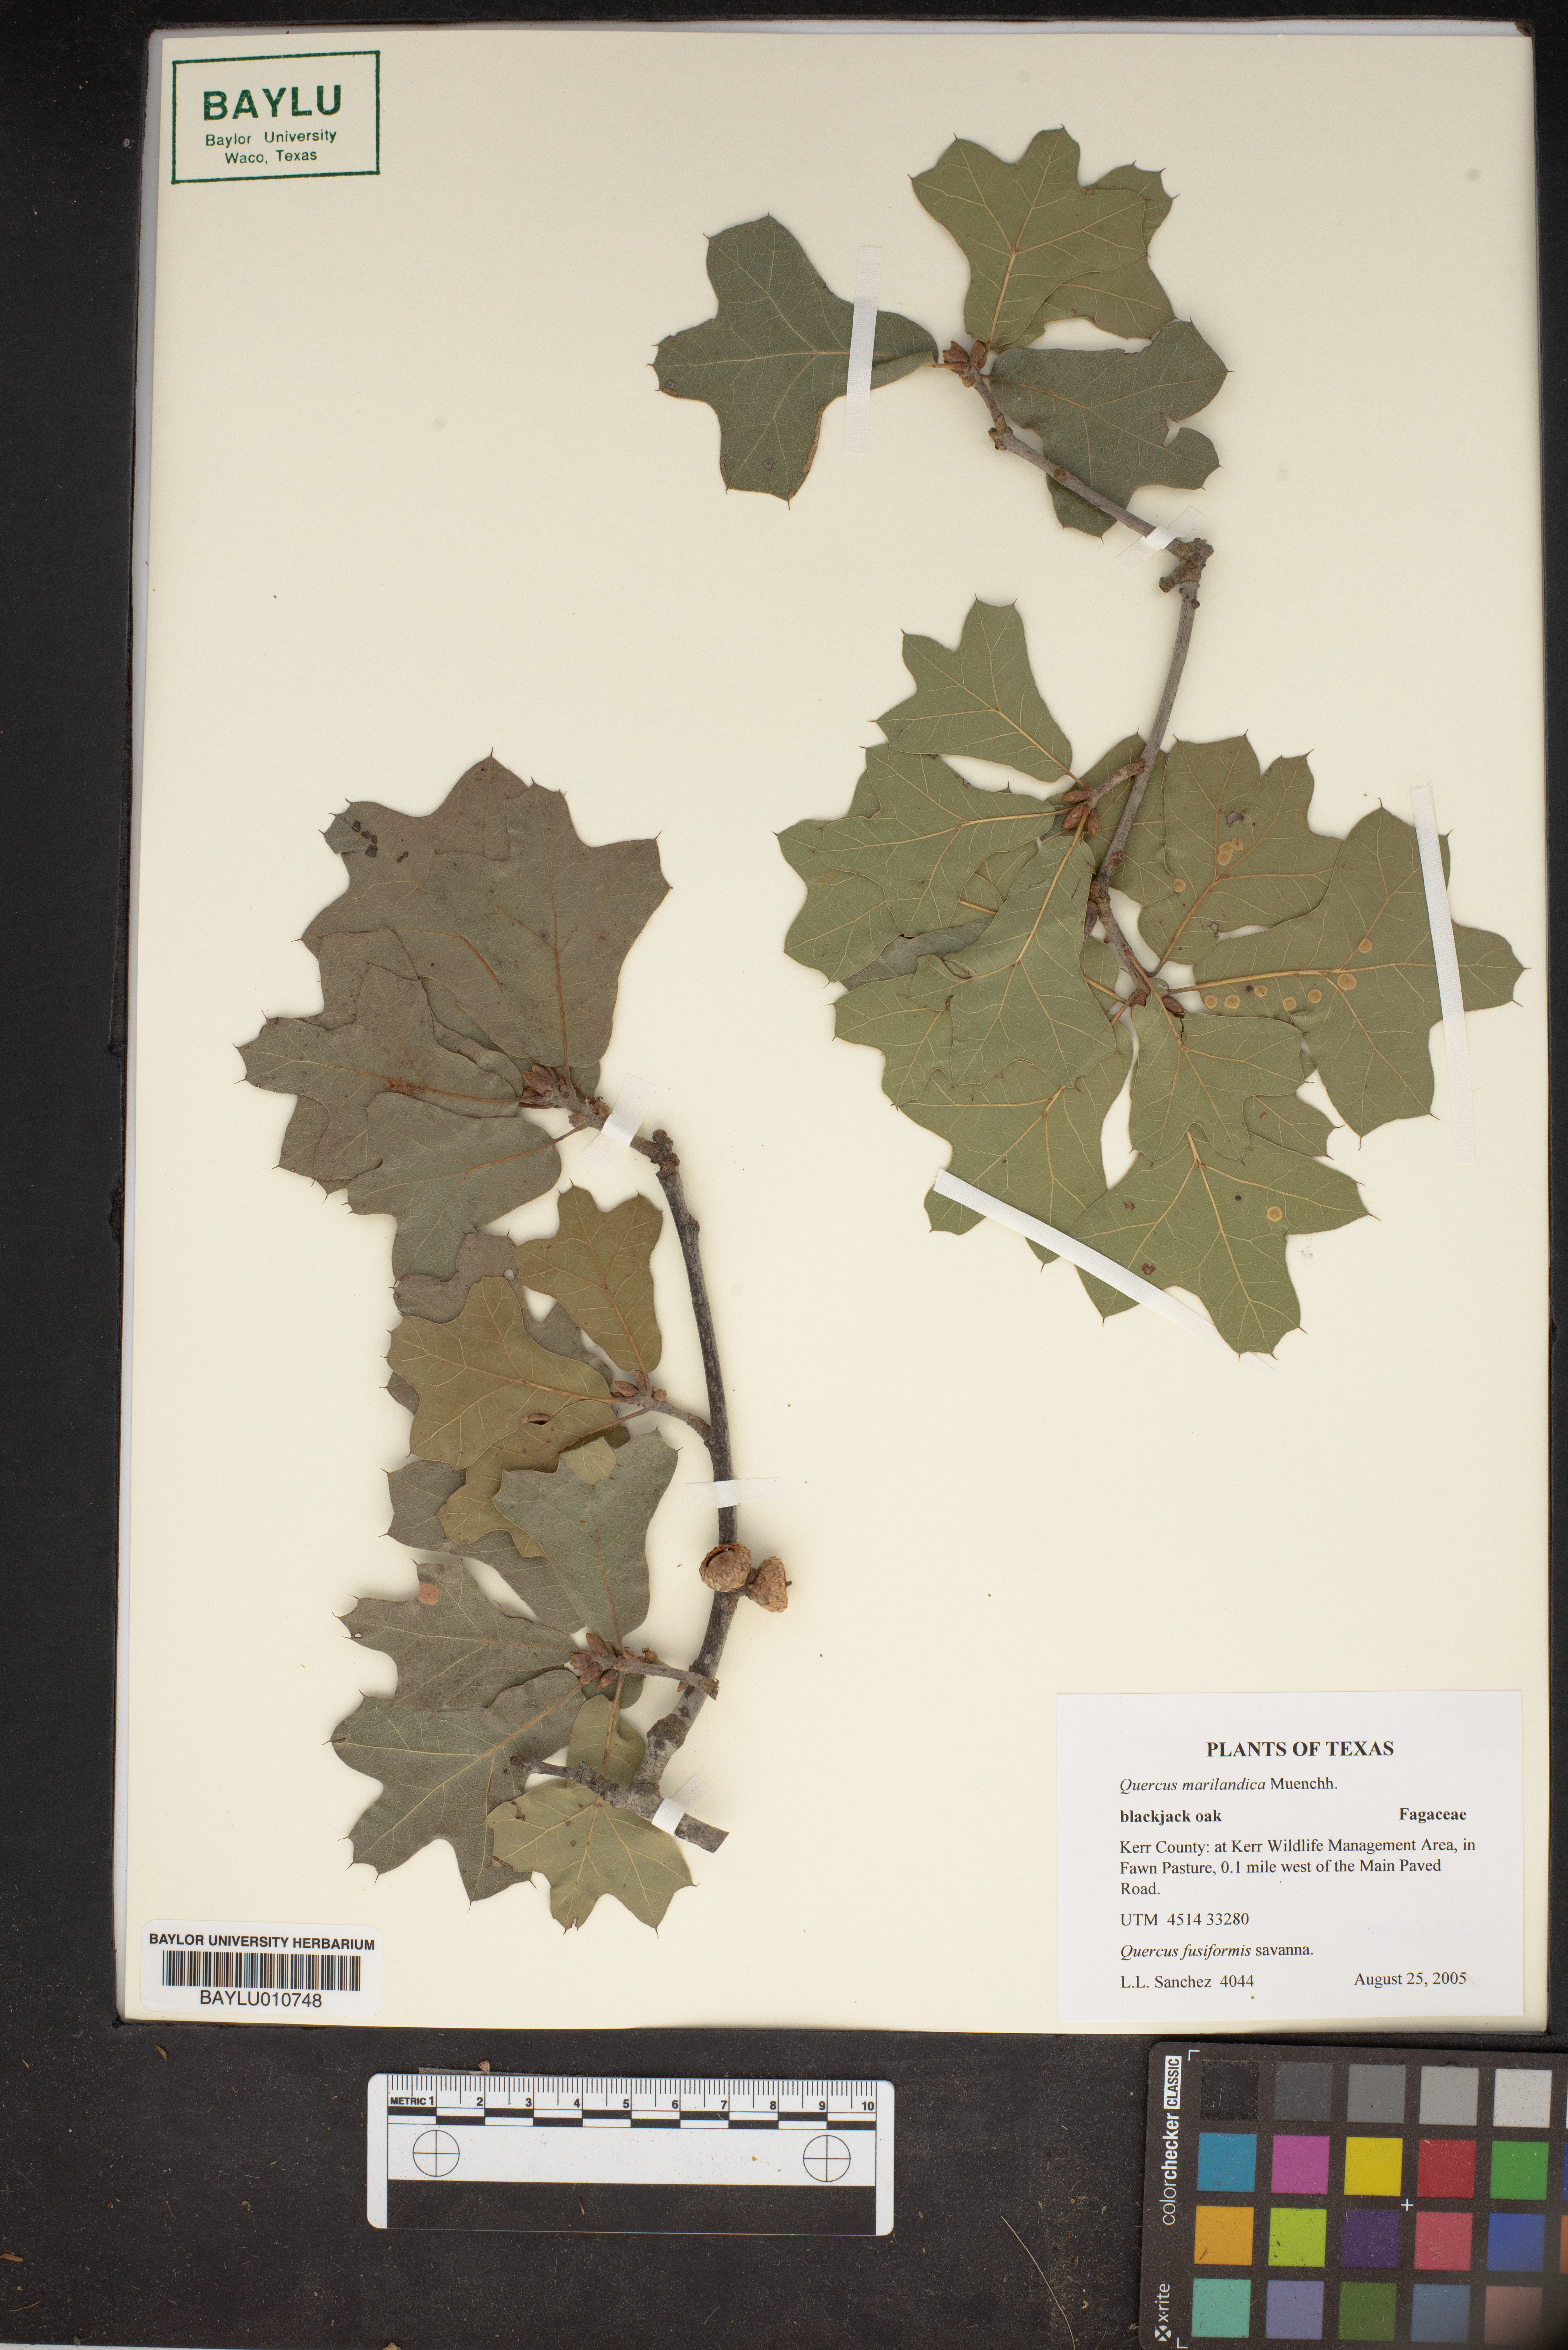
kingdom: Plantae
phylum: Tracheophyta
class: Magnoliopsida
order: Fagales
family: Fagaceae
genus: Quercus
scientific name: Quercus marilandica
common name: Blackjack oak
